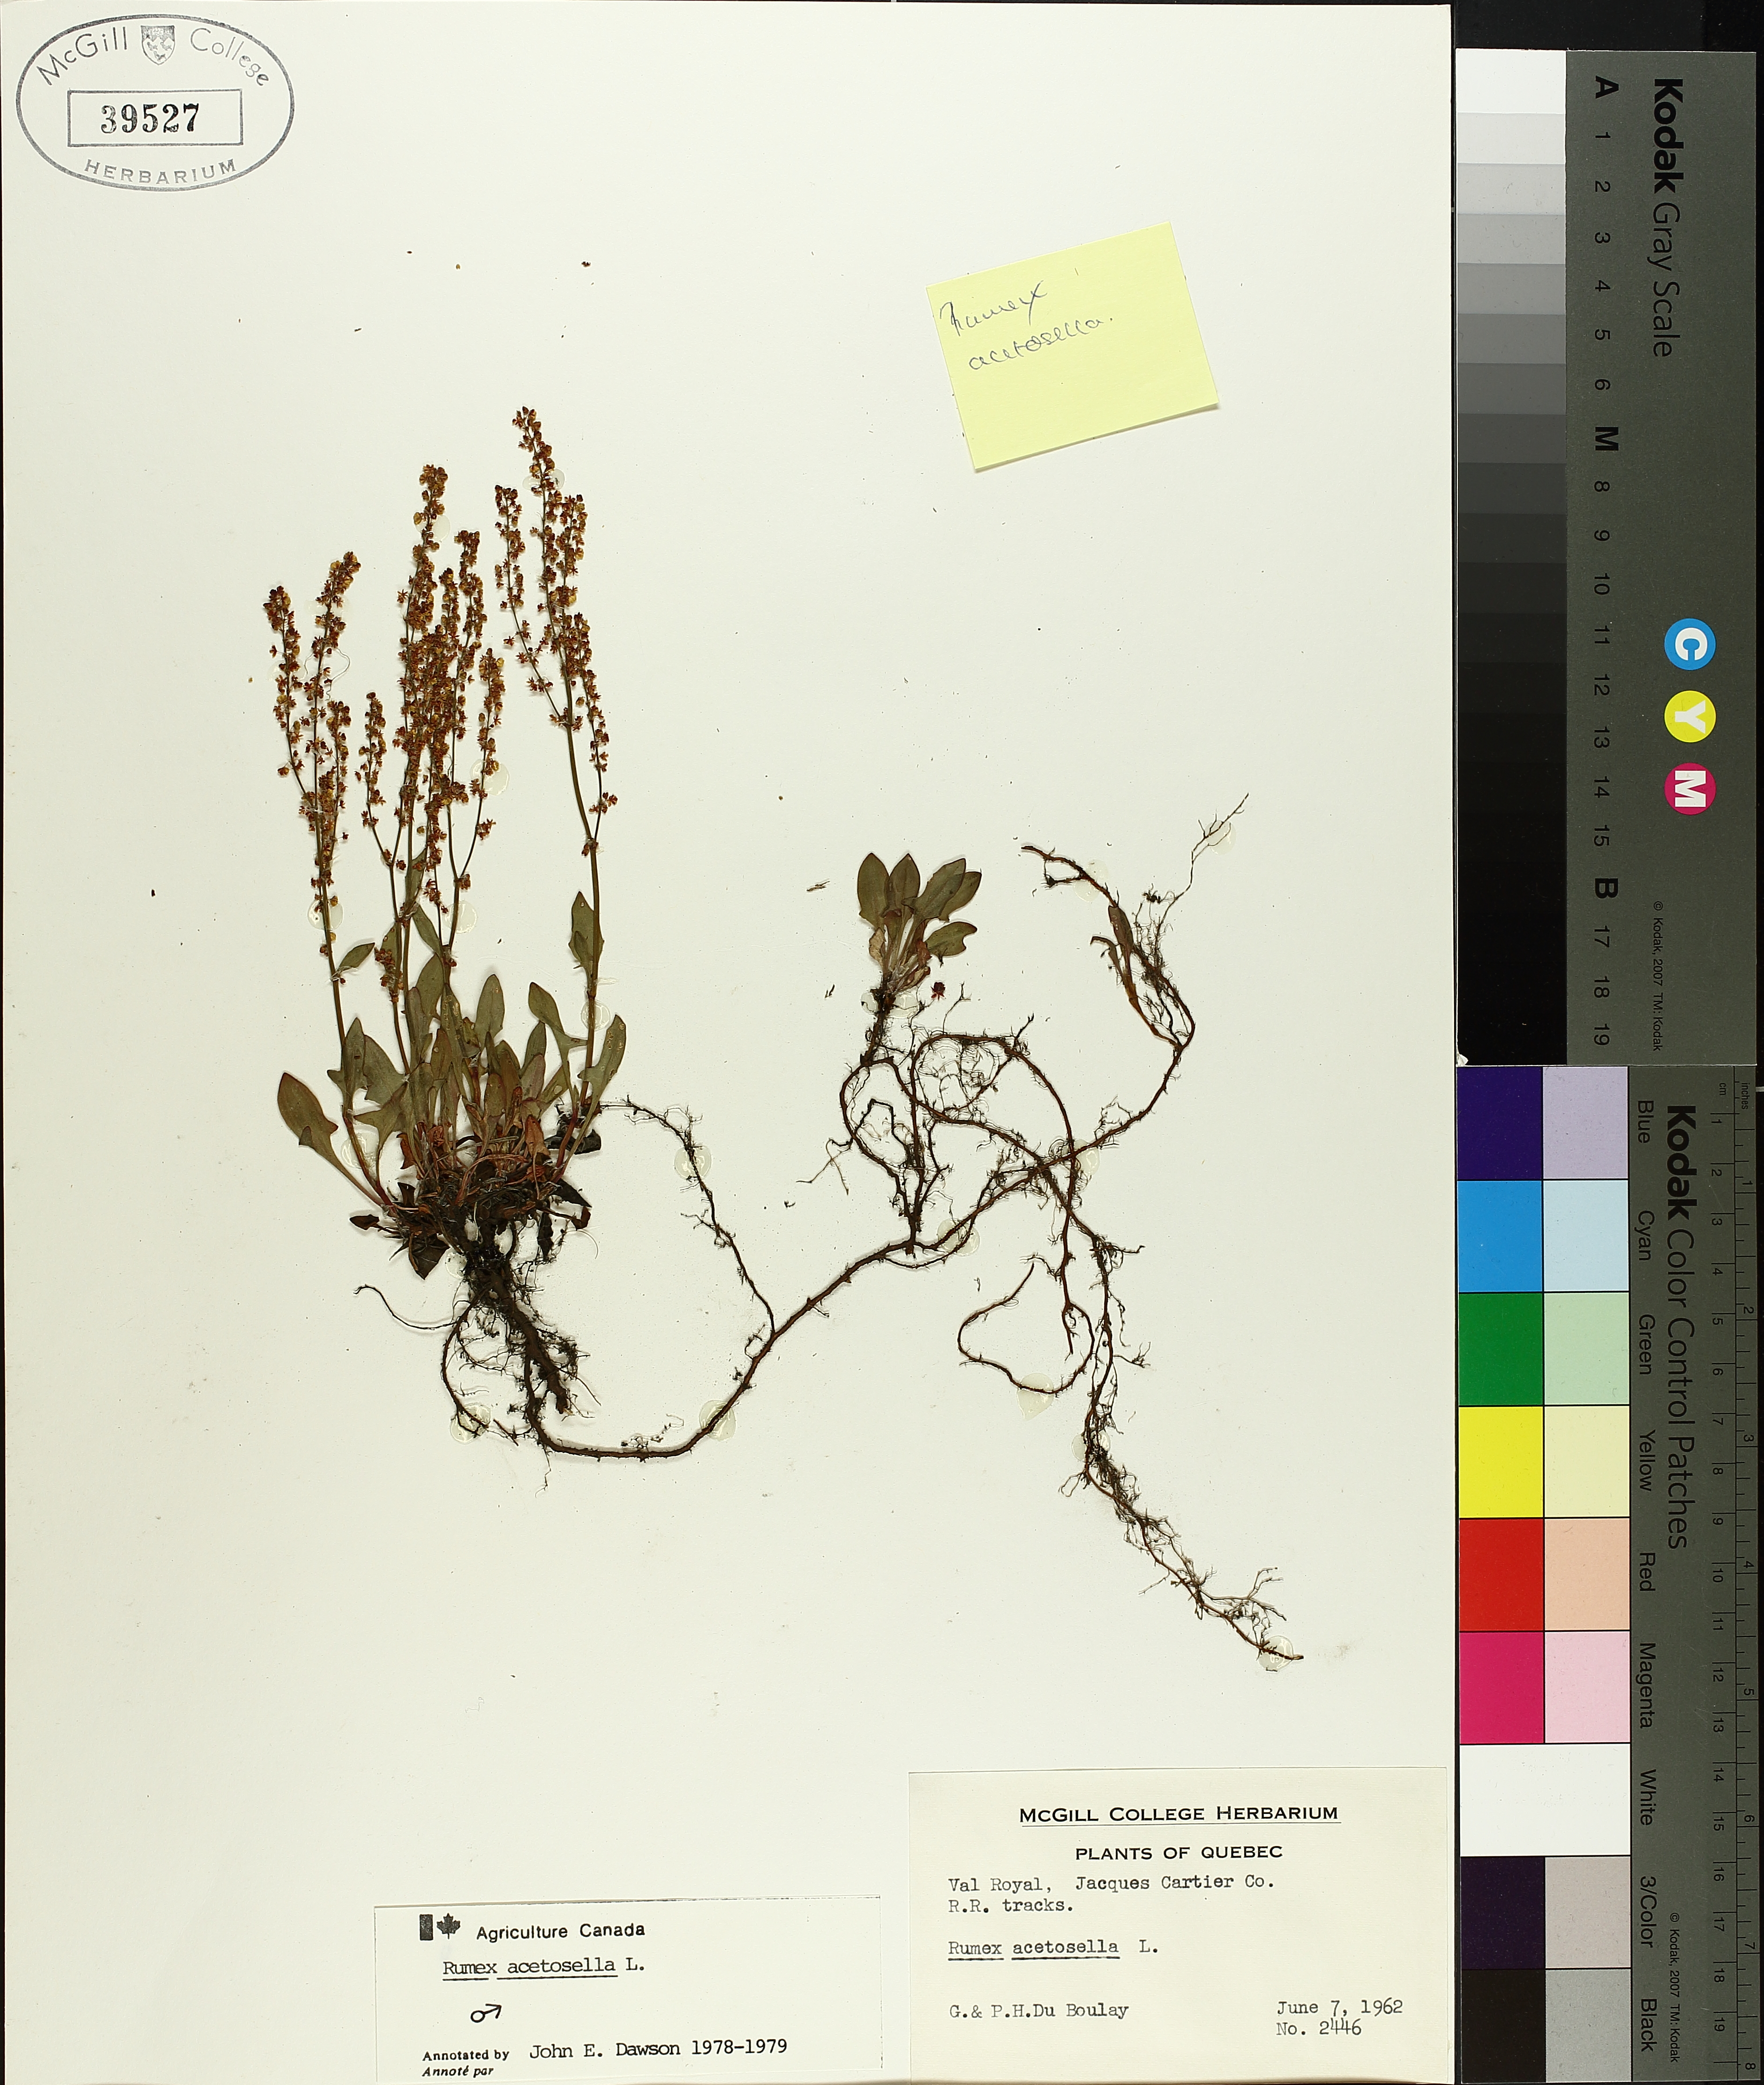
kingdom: Plantae
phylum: Tracheophyta
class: Magnoliopsida
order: Caryophyllales
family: Polygonaceae
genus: Rumex
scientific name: Rumex acetosella
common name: Common sheep sorrel
